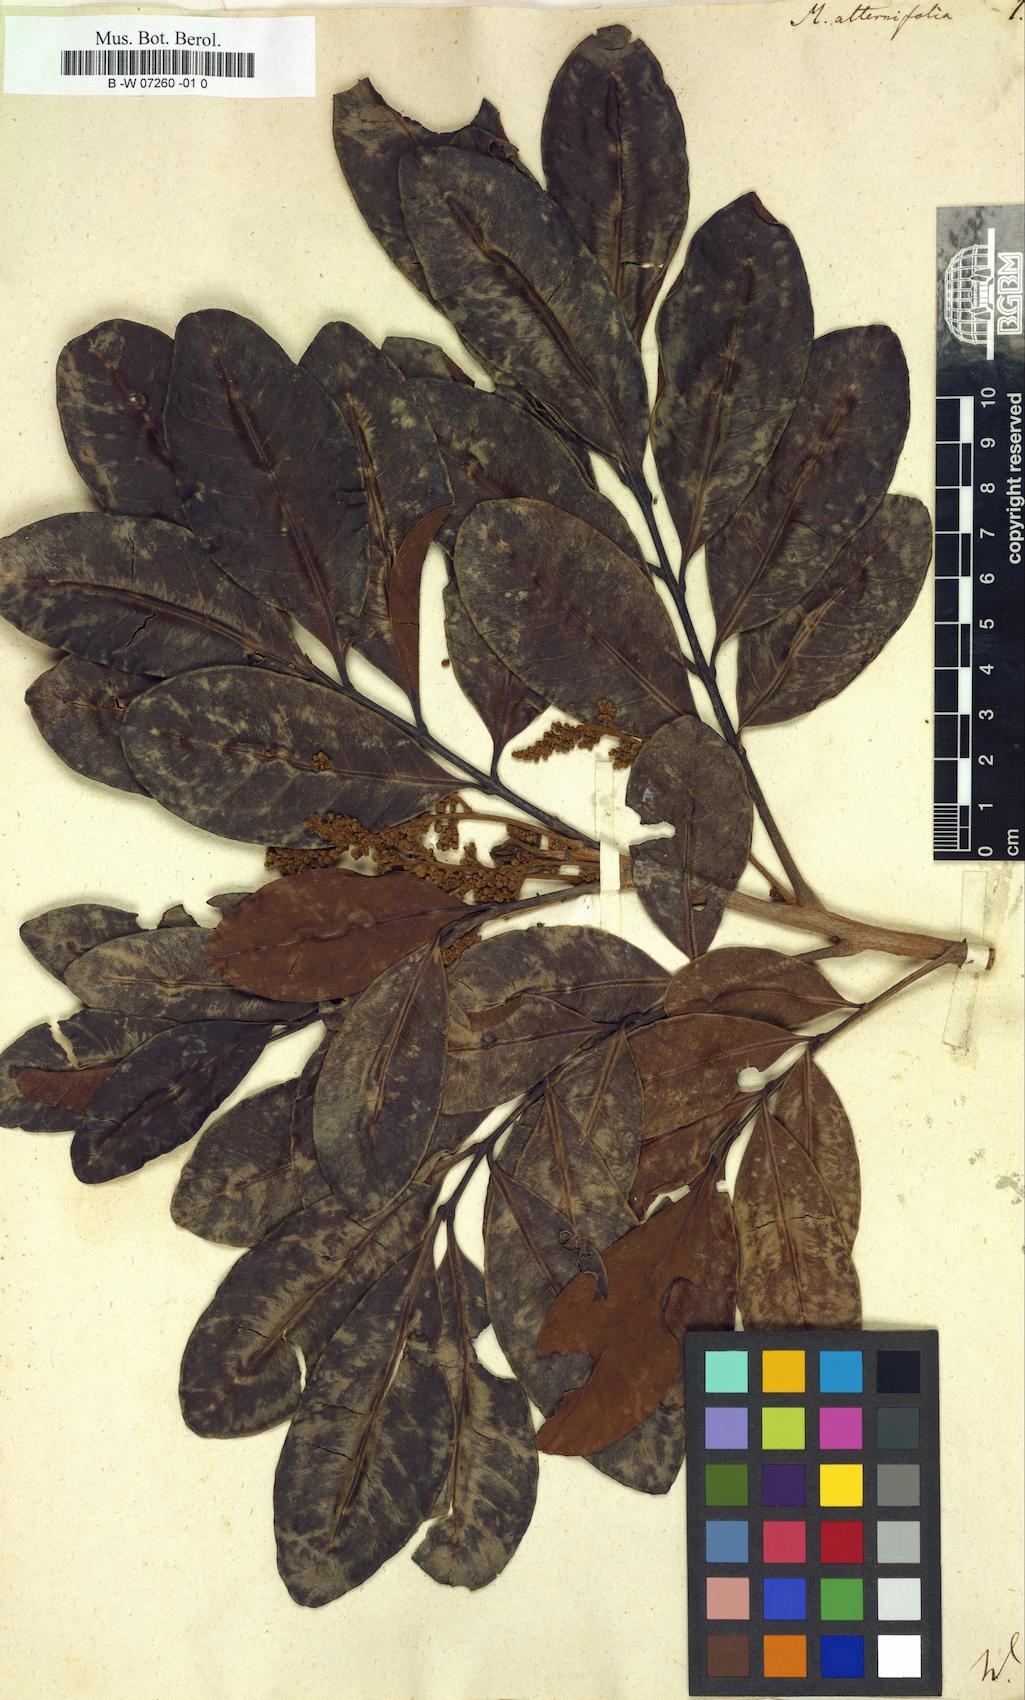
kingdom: Plantae
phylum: Tracheophyta
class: Magnoliopsida
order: Sapindales
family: Sapindaceae
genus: Molinaea
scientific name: Molinaea alternifolia
